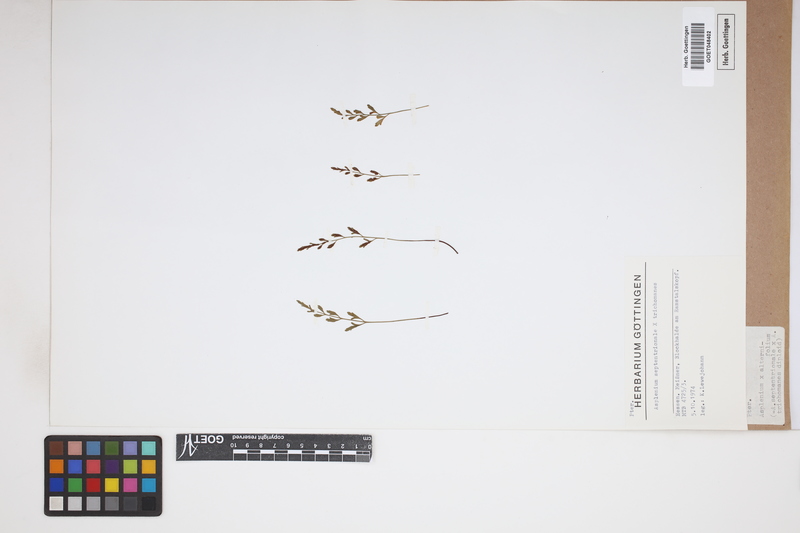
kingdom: Plantae
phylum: Tracheophyta
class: Polypodiopsida
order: Polypodiales
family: Aspleniaceae
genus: Asplenium
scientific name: Asplenium alternifolium
